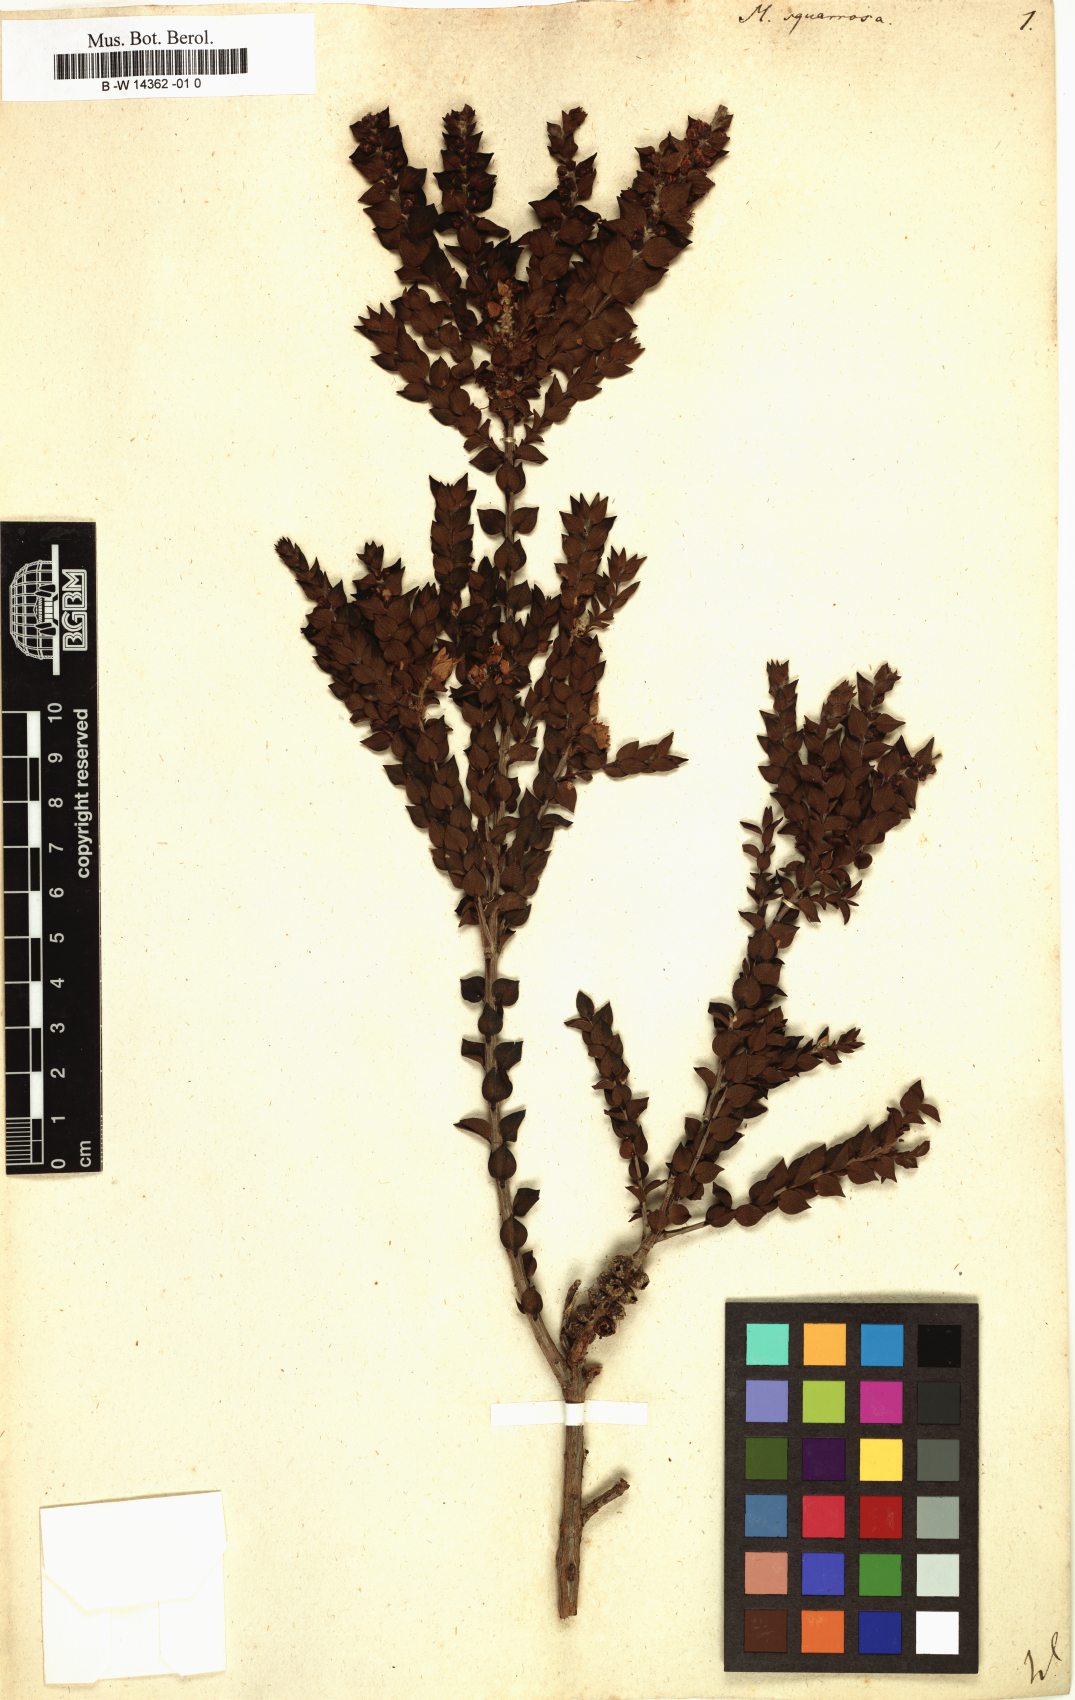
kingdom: Plantae
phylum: Tracheophyta
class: Magnoliopsida
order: Myrtales
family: Myrtaceae
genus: Melaleuca
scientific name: Melaleuca squarrosa
